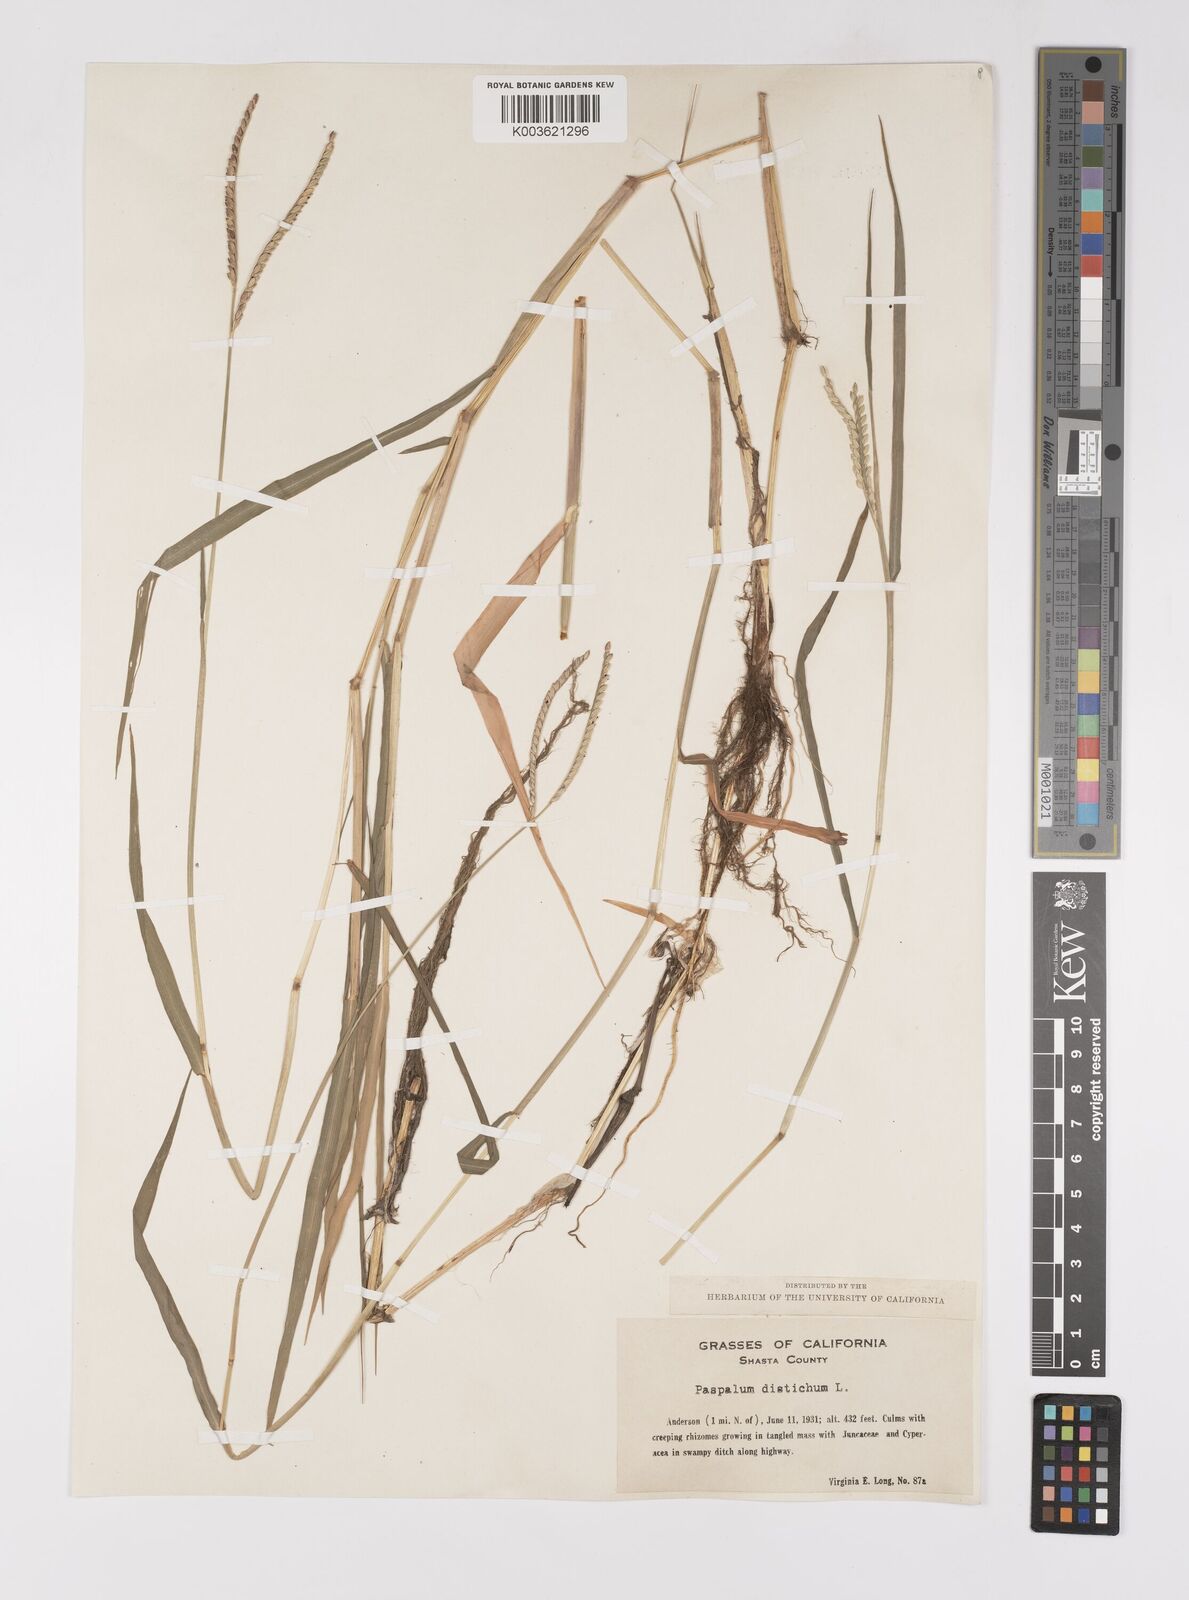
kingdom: Plantae
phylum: Tracheophyta
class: Liliopsida
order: Poales
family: Poaceae
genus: Paspalum
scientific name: Paspalum distichum
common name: Knotgrass
